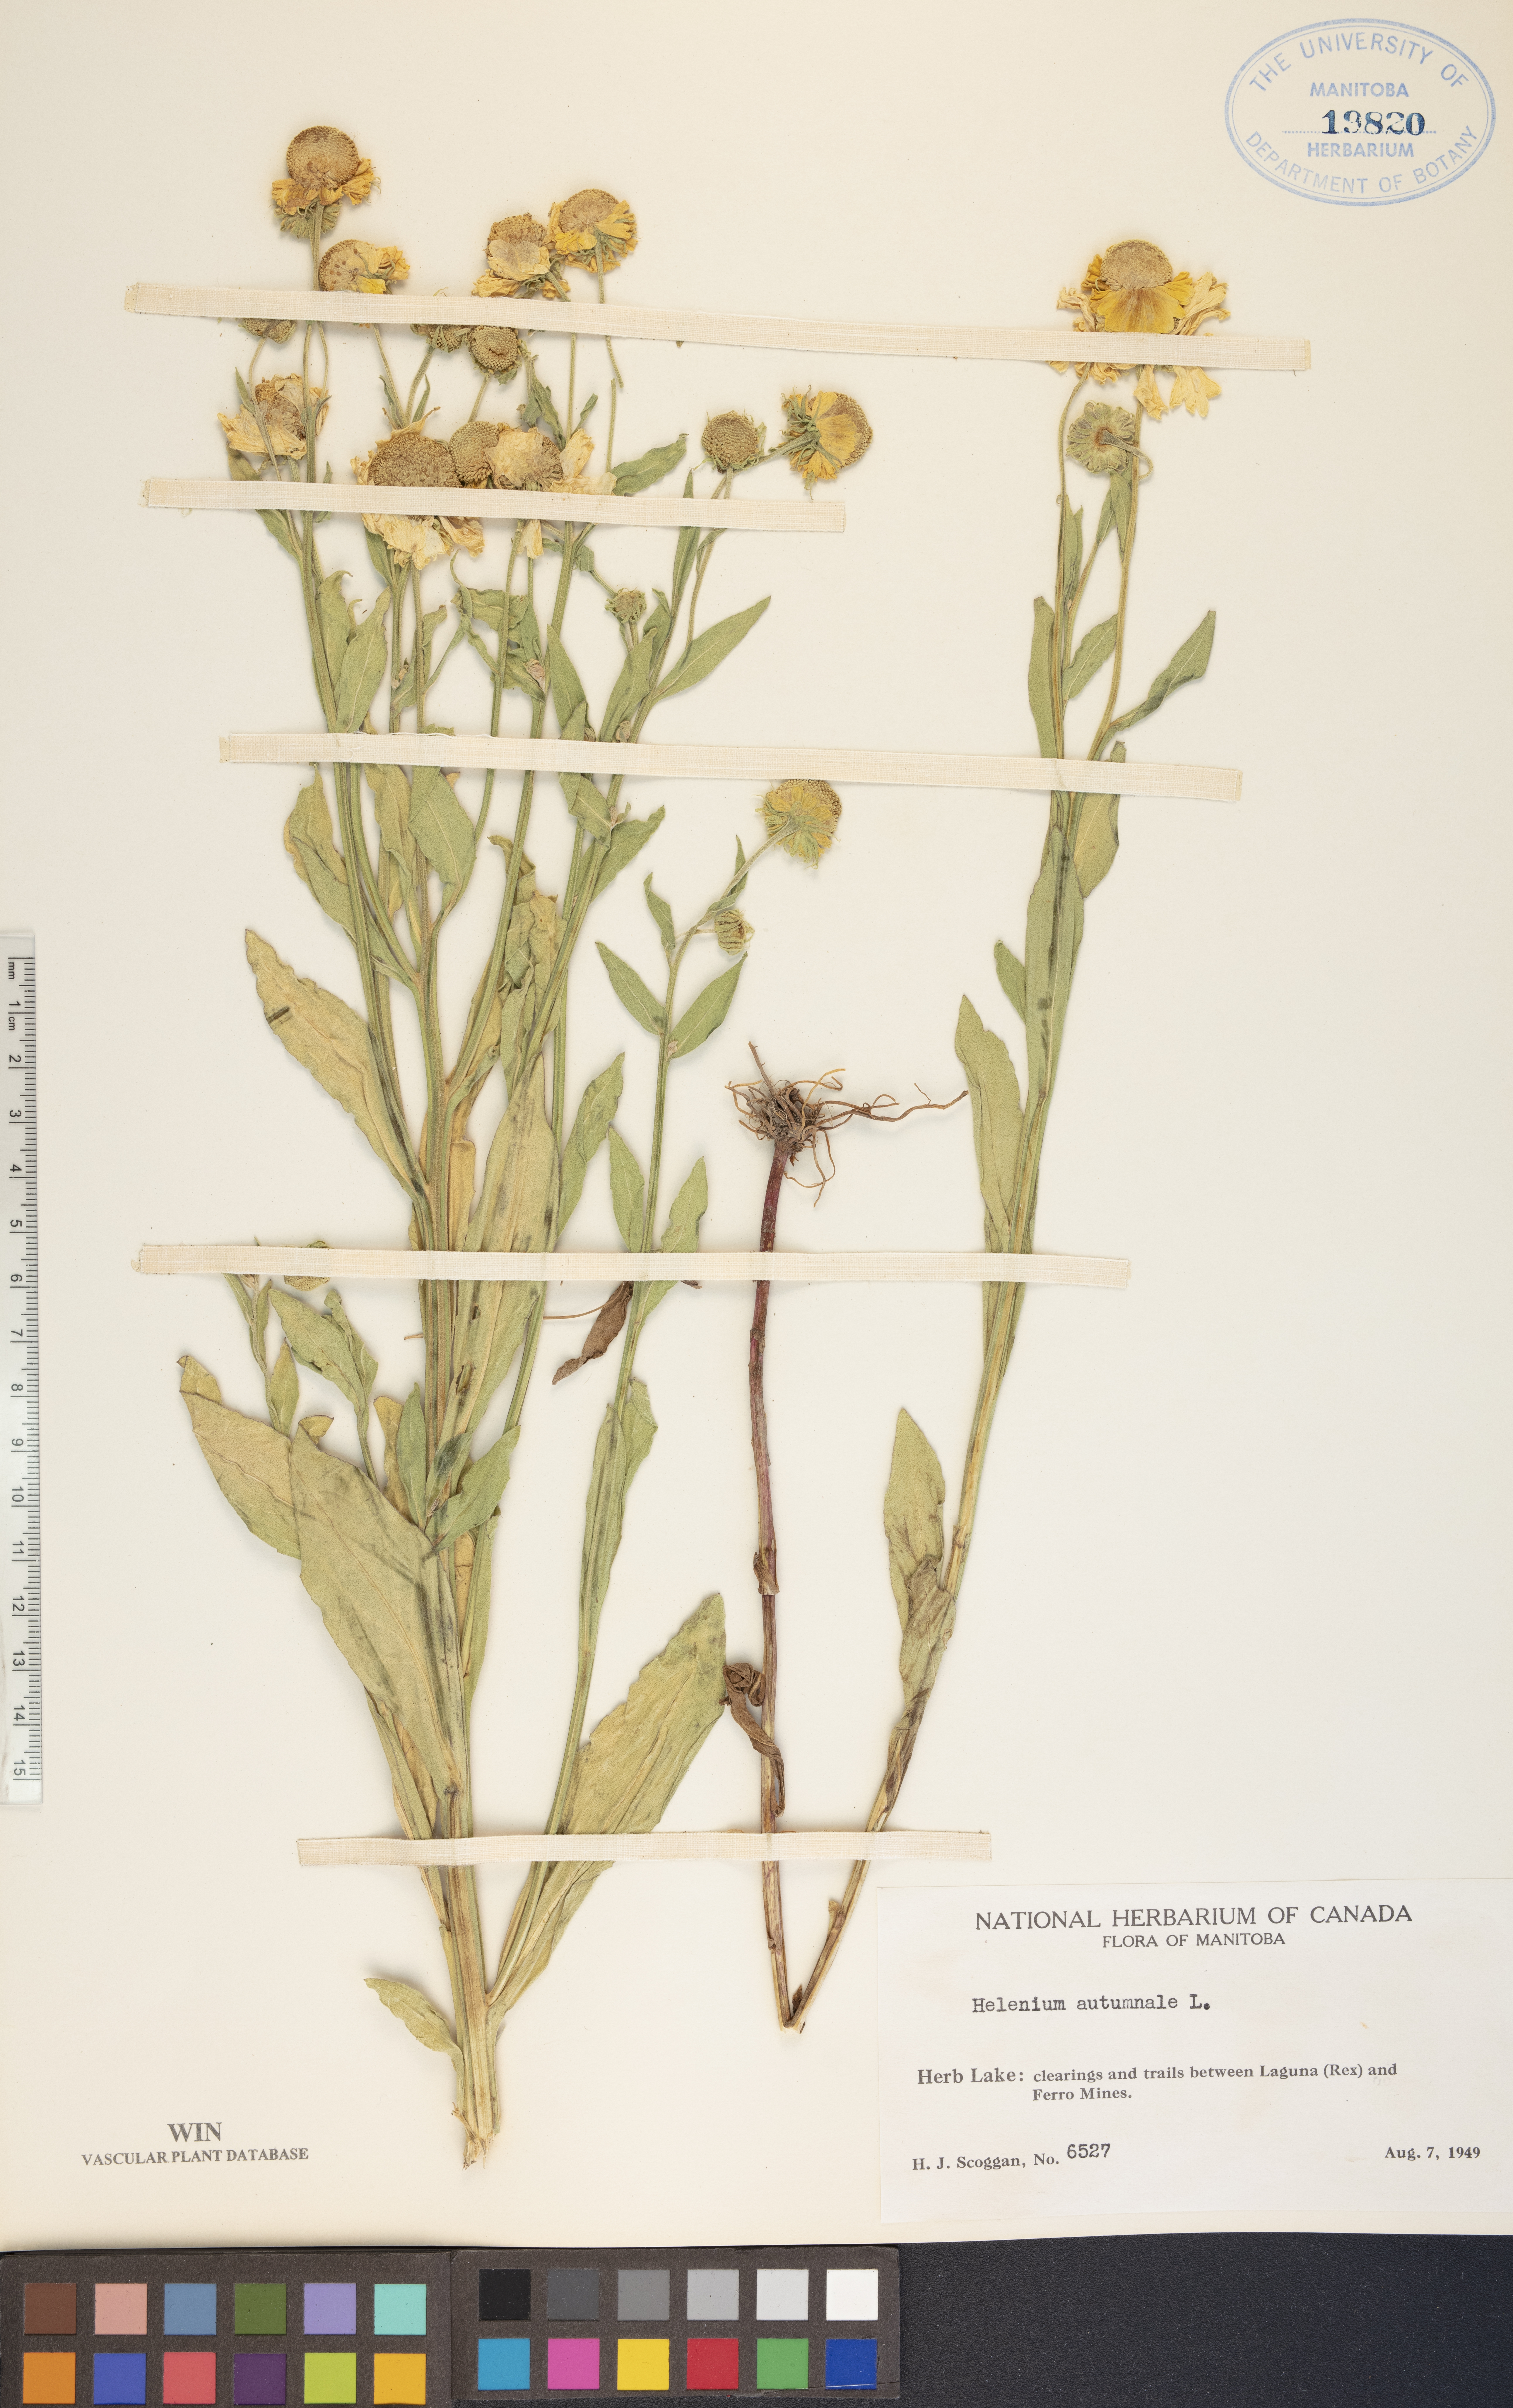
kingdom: Plantae
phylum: Tracheophyta
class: Magnoliopsida
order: Asterales
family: Asteraceae
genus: Helenium
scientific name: Helenium autumnale
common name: Sneezeweed
